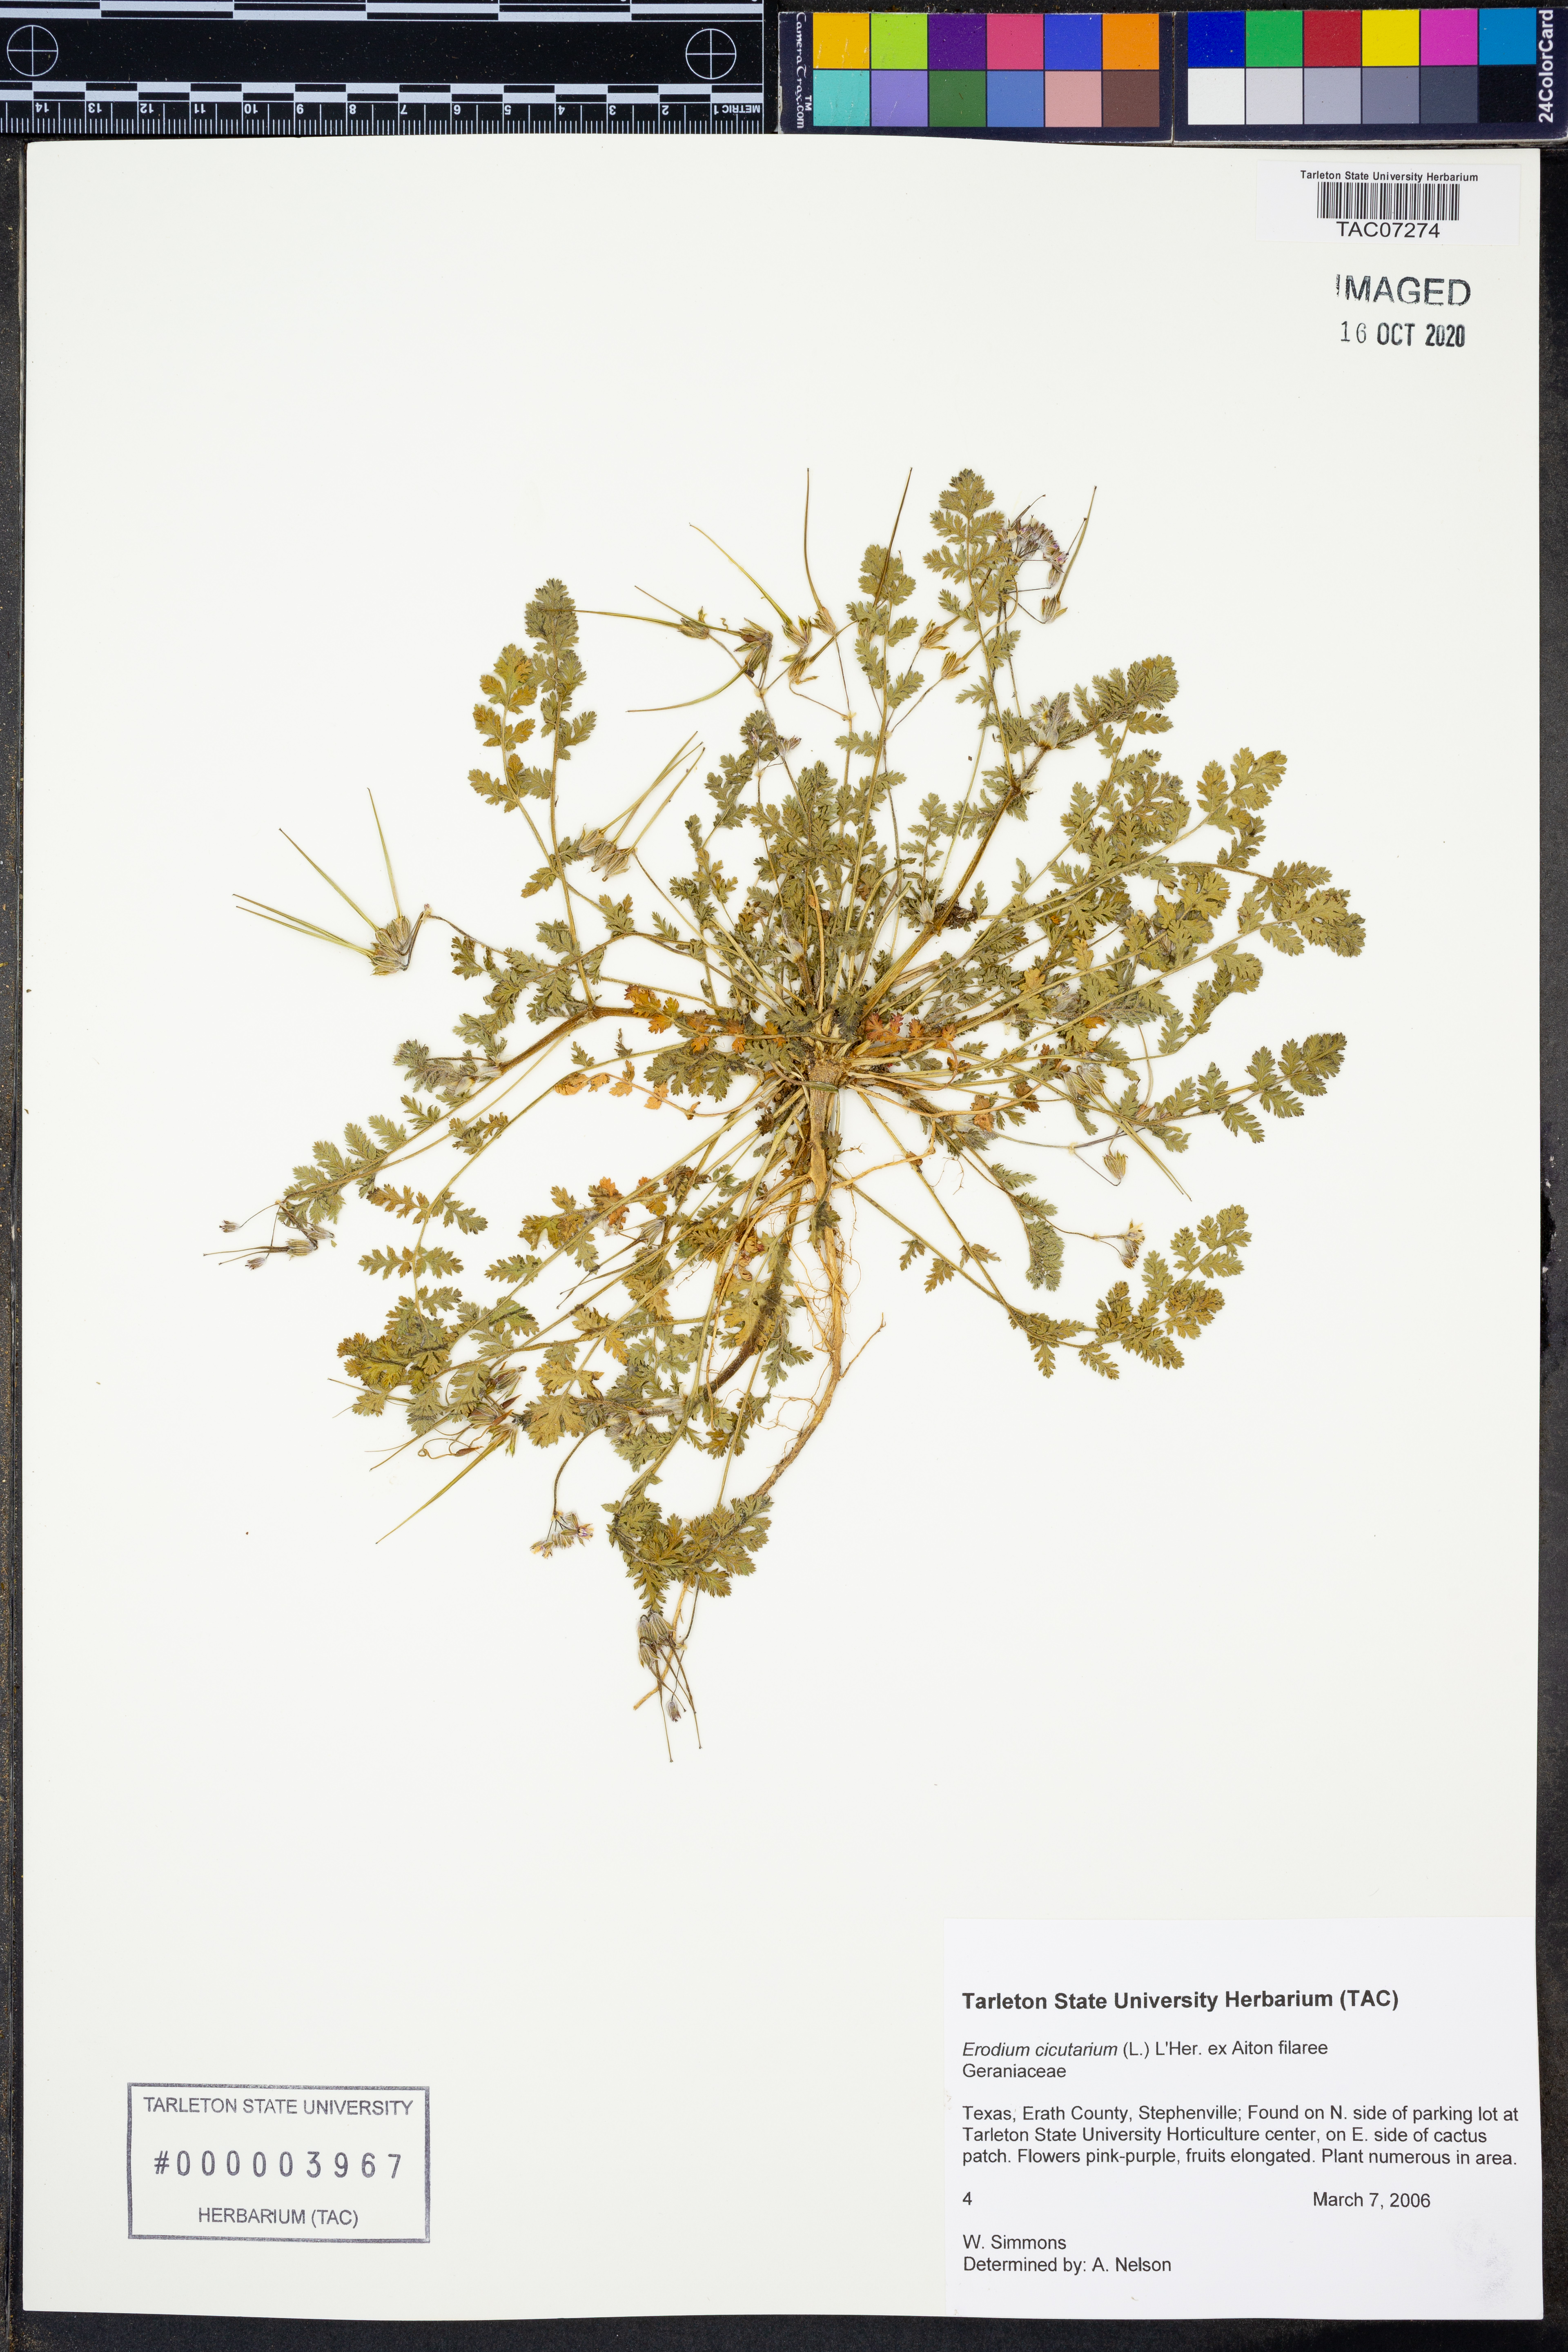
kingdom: Plantae
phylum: Tracheophyta
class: Magnoliopsida
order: Geraniales
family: Geraniaceae
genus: Erodium
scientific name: Erodium cicutarium
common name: Common stork's-bill
